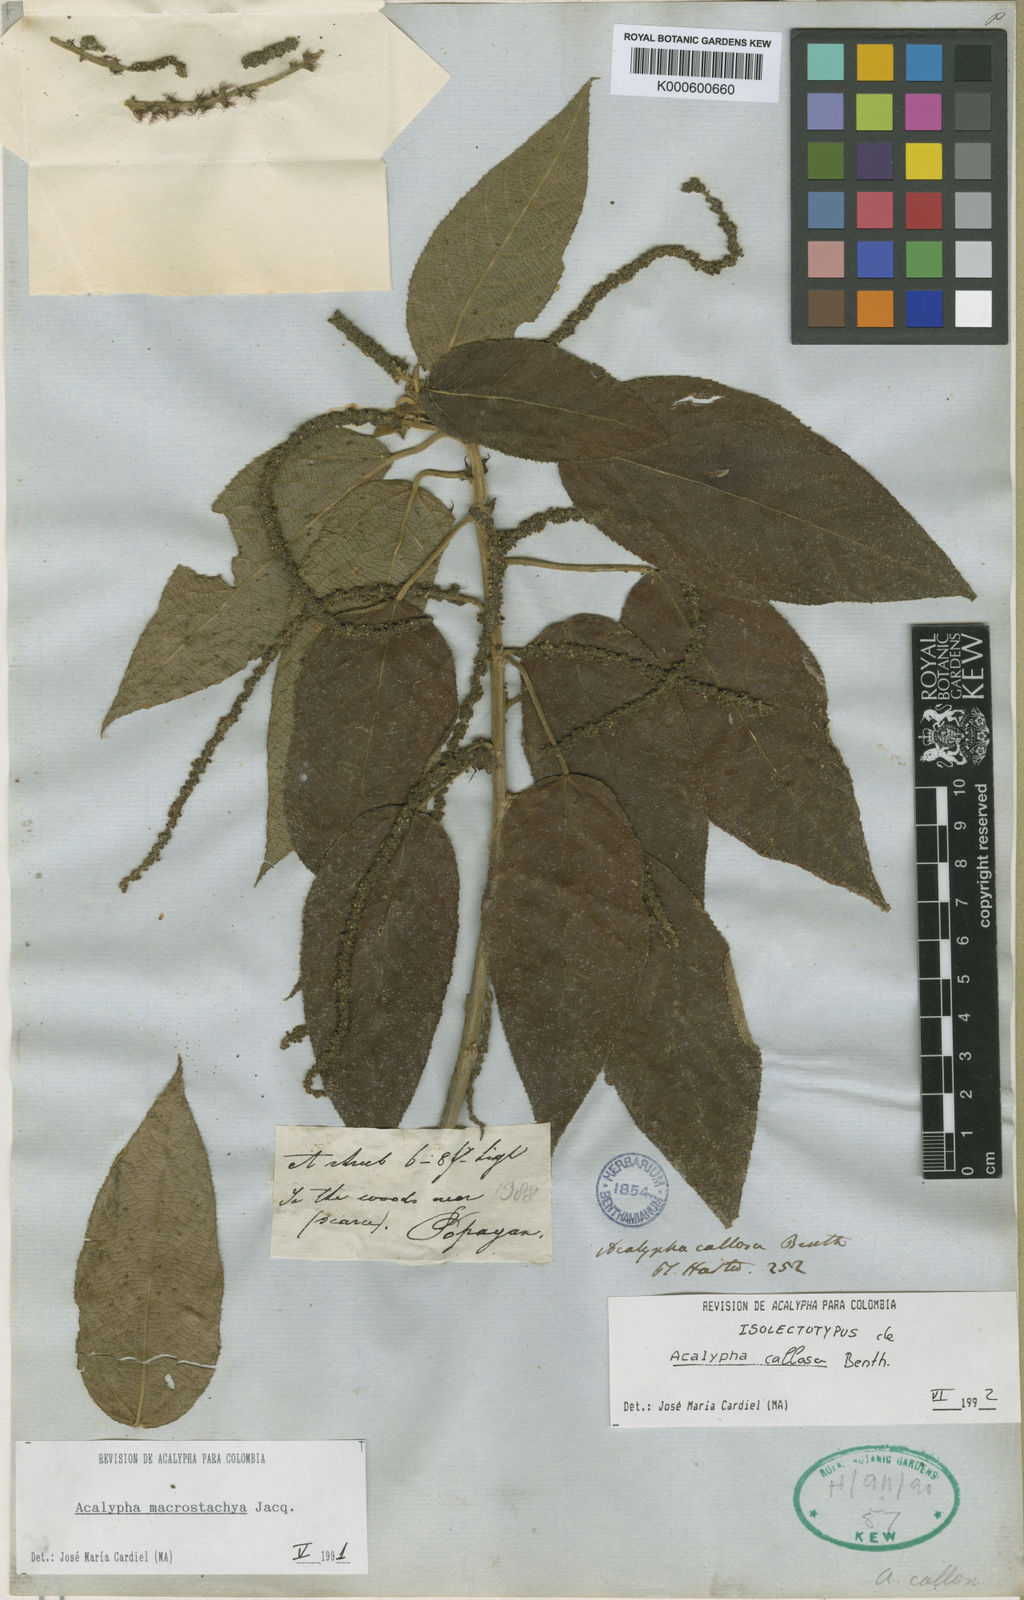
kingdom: Plantae
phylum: Tracheophyta
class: Magnoliopsida
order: Malpighiales
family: Euphorbiaceae
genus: Acalypha
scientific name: Acalypha macrostachya
